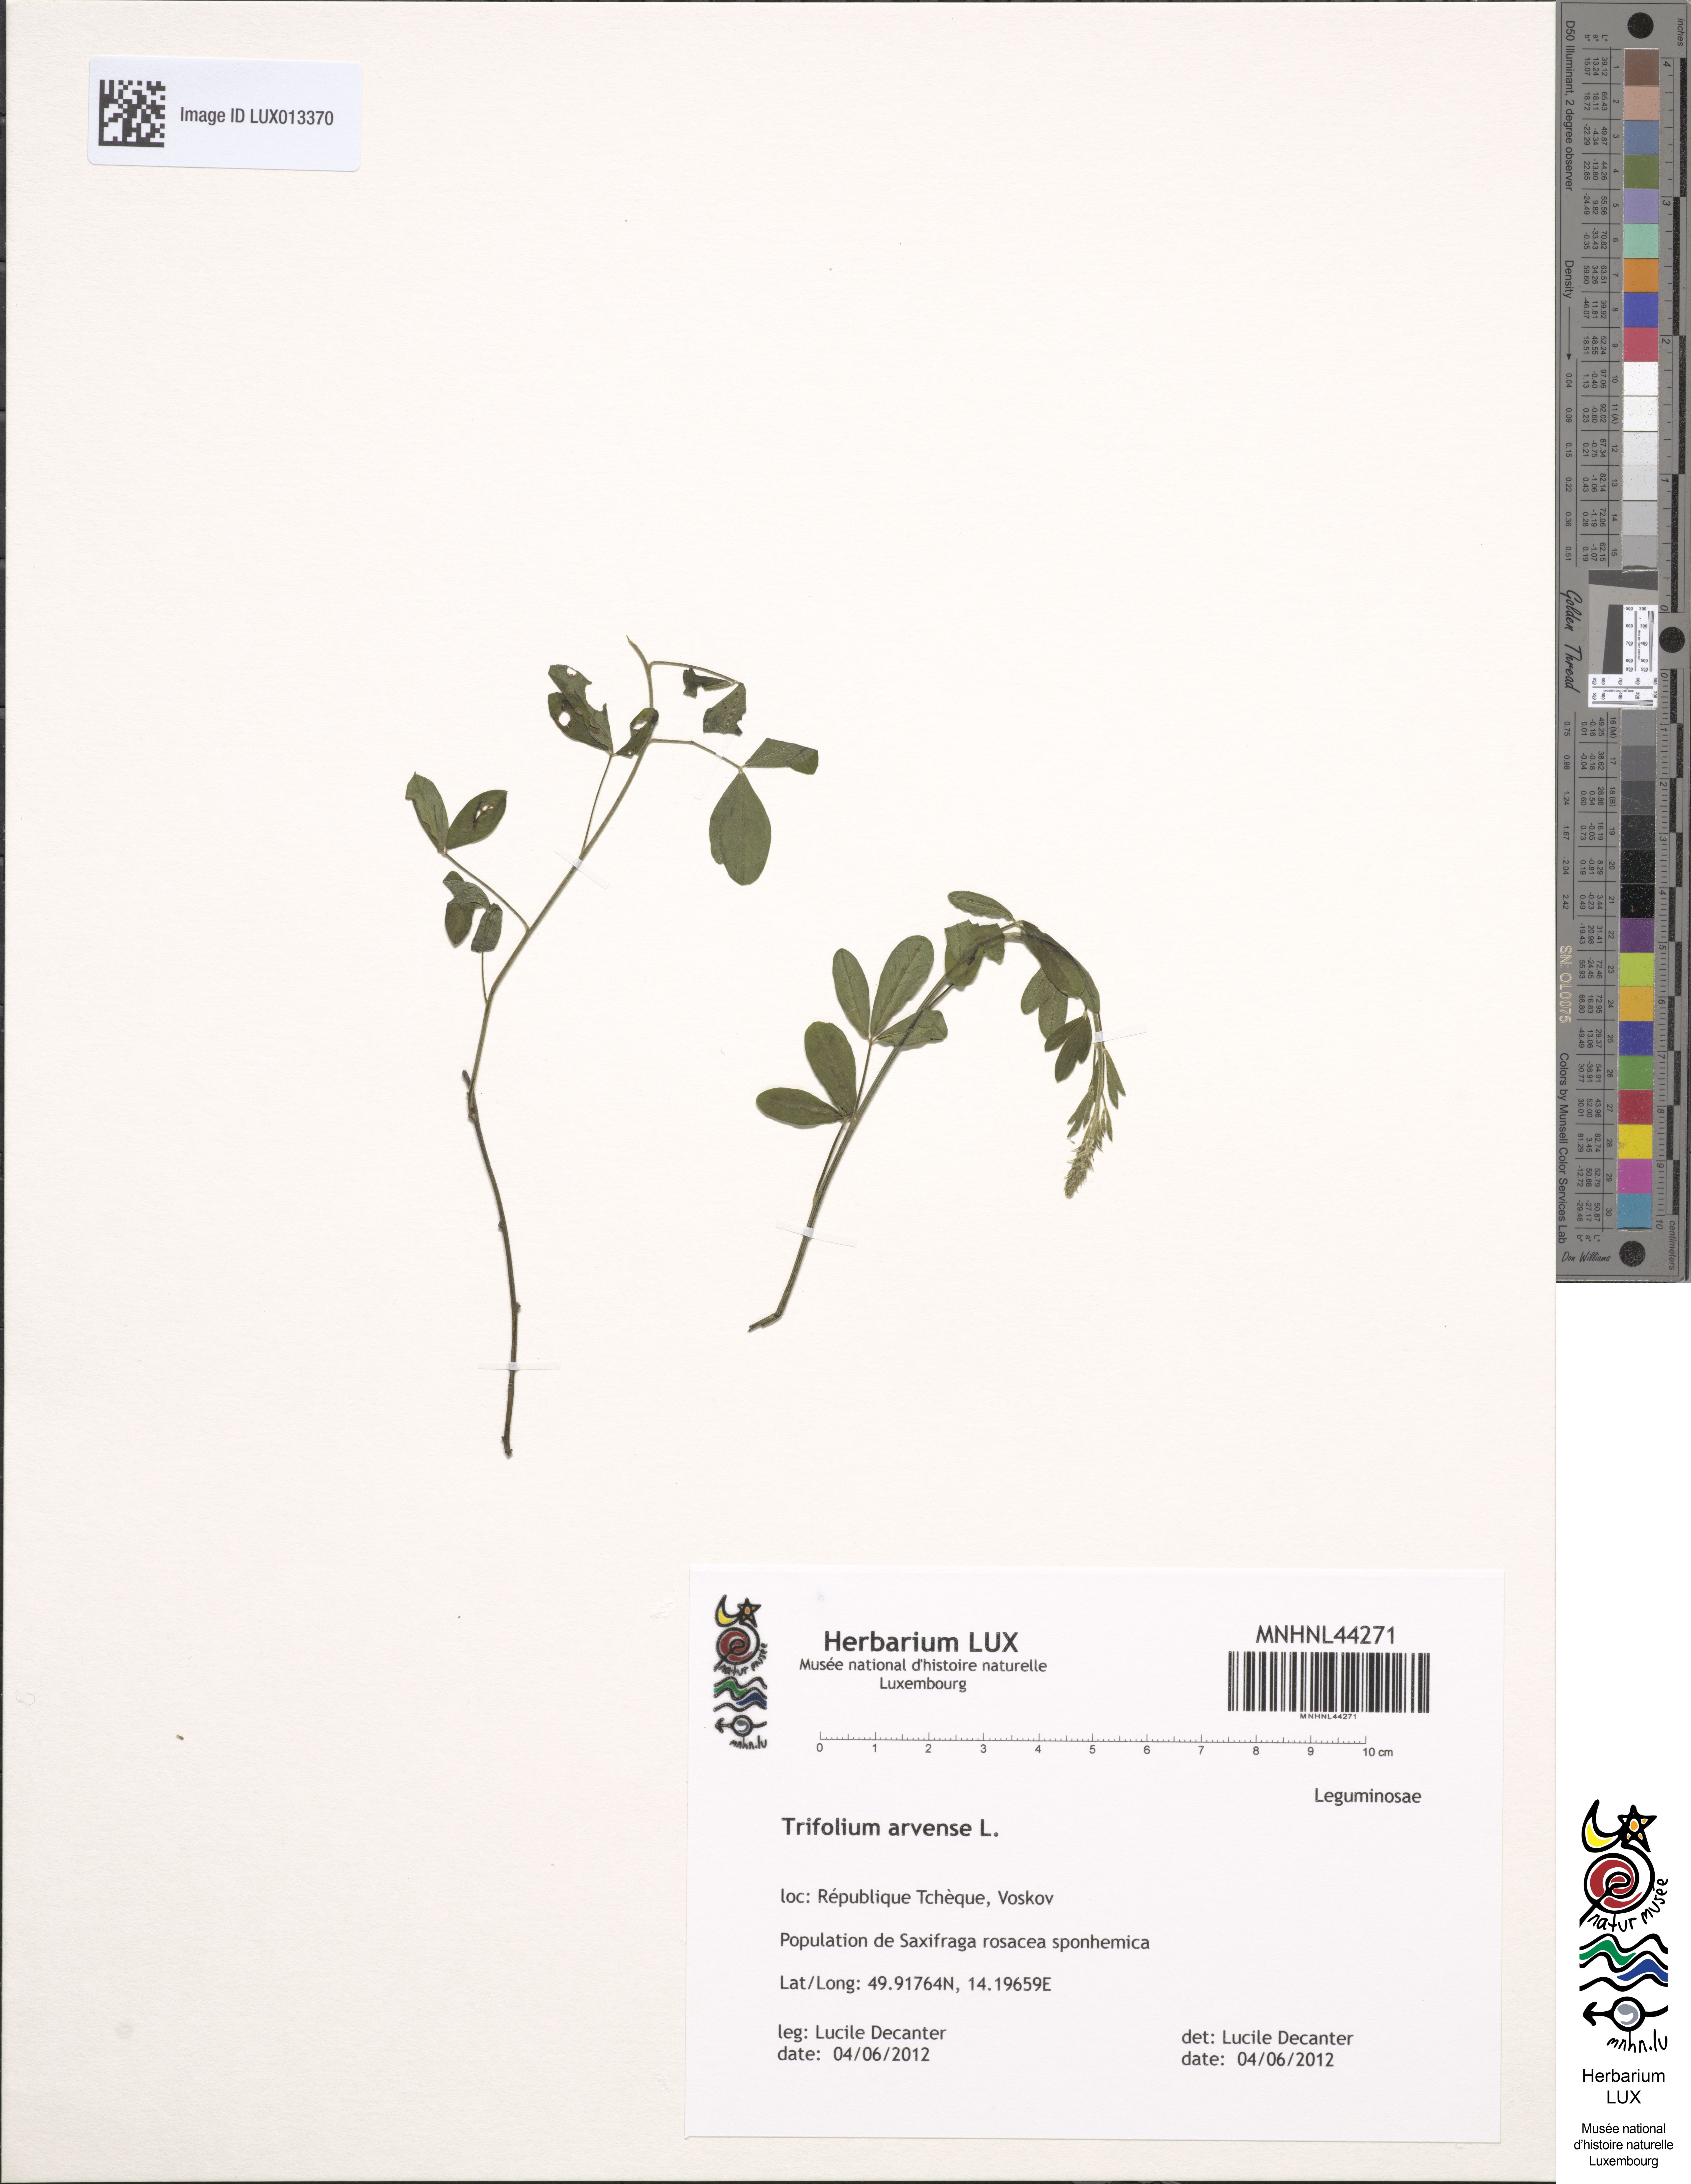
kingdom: Plantae
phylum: Tracheophyta
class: Magnoliopsida
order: Fabales
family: Fabaceae
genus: Trifolium
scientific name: Trifolium arvense
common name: Hare's-foot clover
